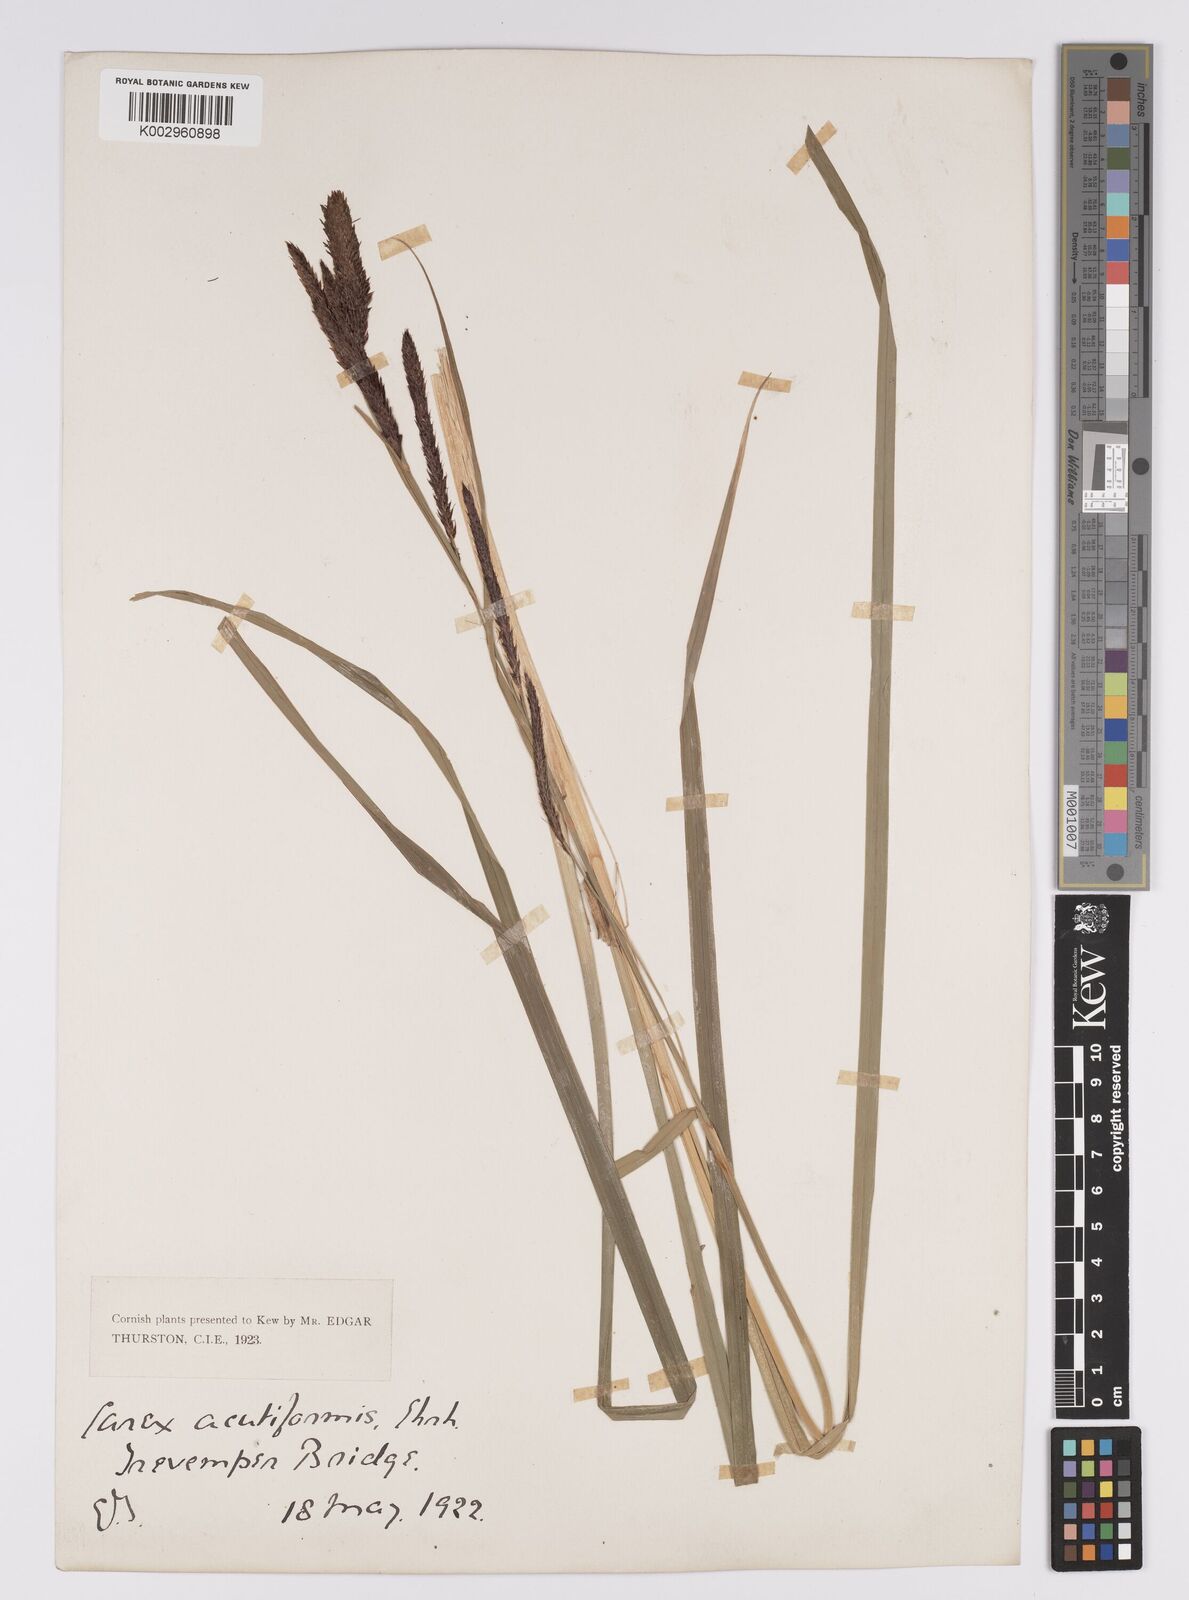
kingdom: Plantae
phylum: Tracheophyta
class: Liliopsida
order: Poales
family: Cyperaceae
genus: Carex
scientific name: Carex riparia
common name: Greater pond-sedge
